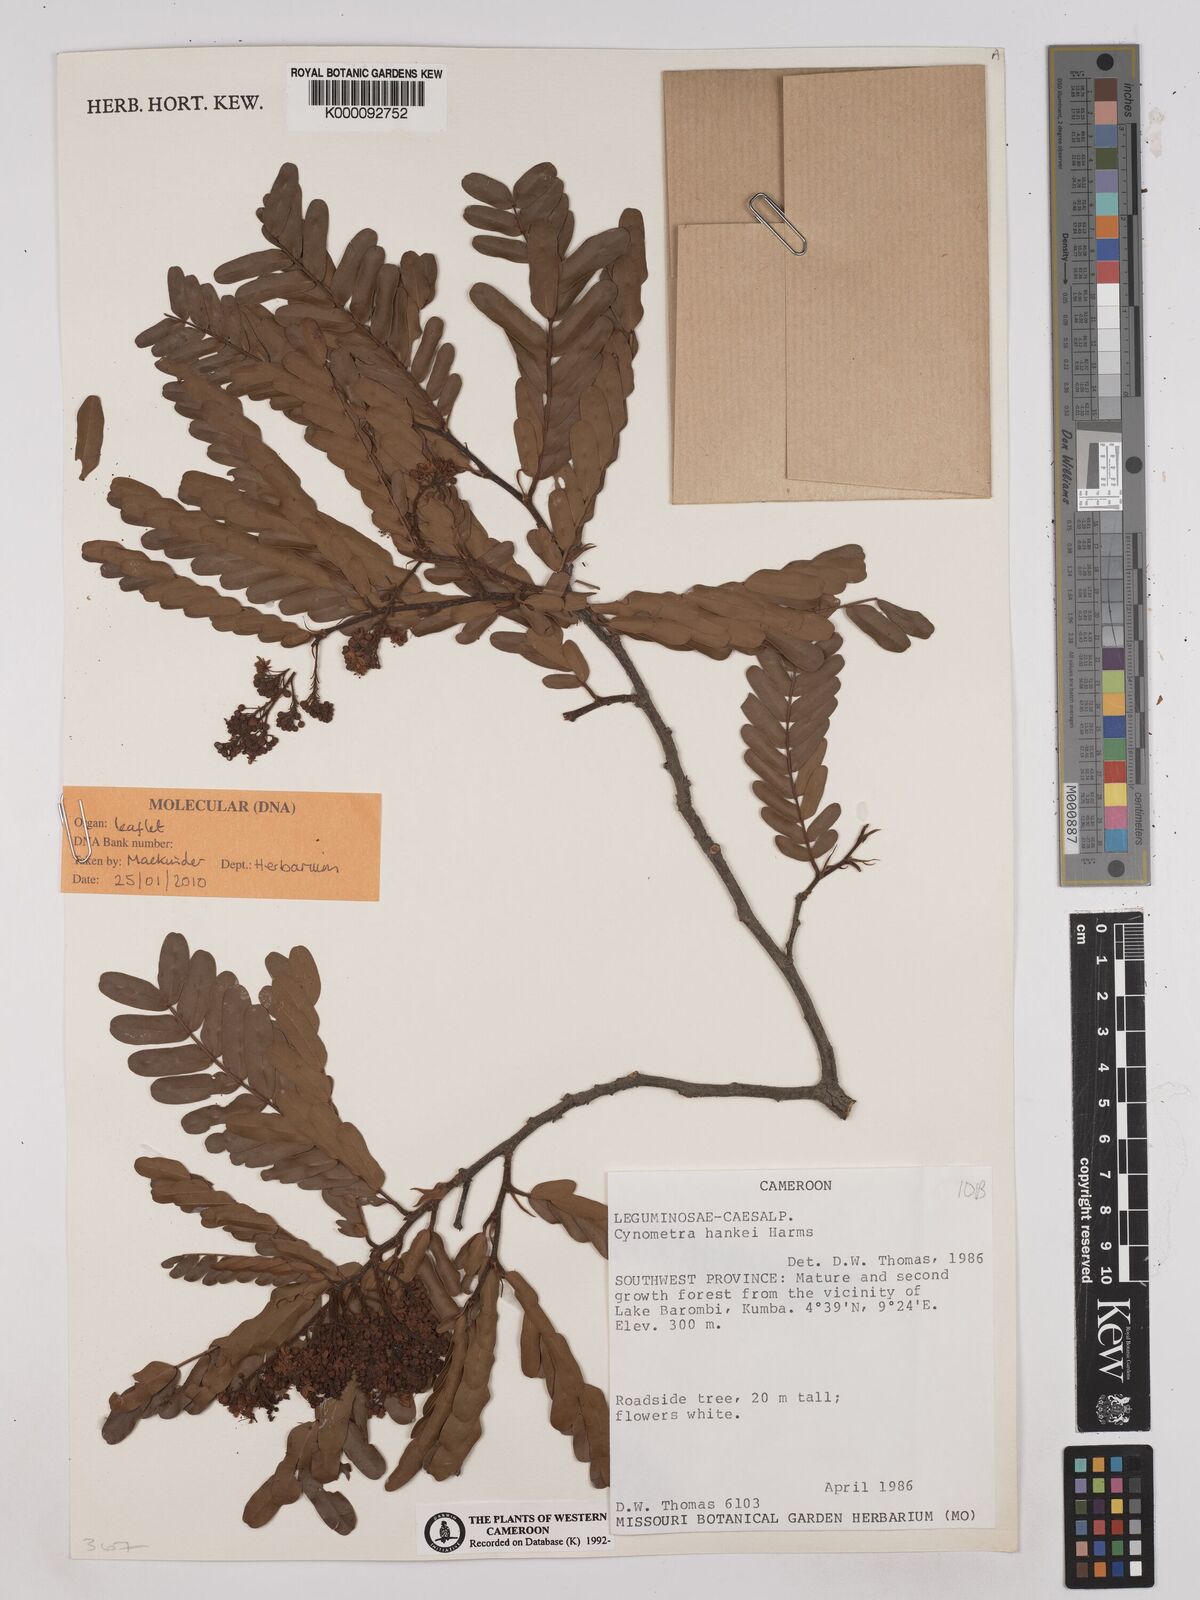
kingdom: Plantae
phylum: Tracheophyta
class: Magnoliopsida
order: Fabales
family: Fabaceae
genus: Cynometra
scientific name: Cynometra hankei
